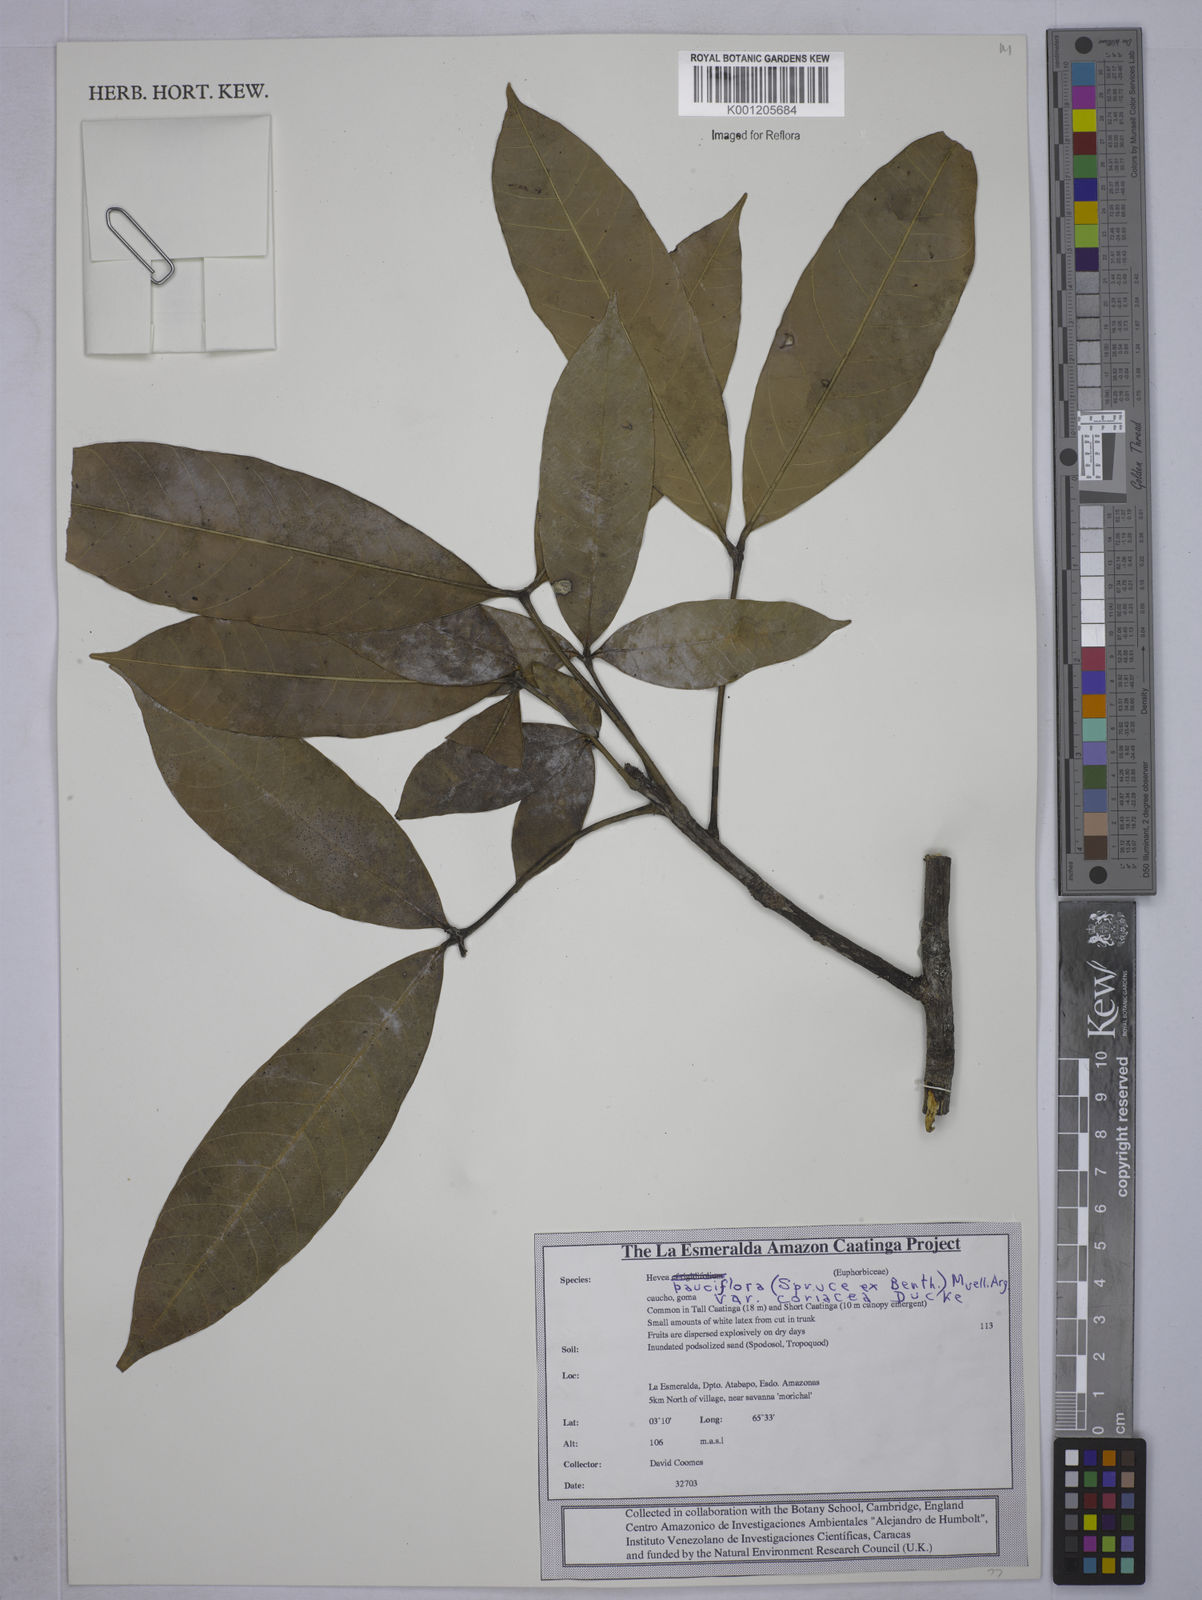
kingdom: Plantae
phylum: Tracheophyta
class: Magnoliopsida
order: Malpighiales
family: Euphorbiaceae
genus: Hevea
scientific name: Hevea pauciflora
